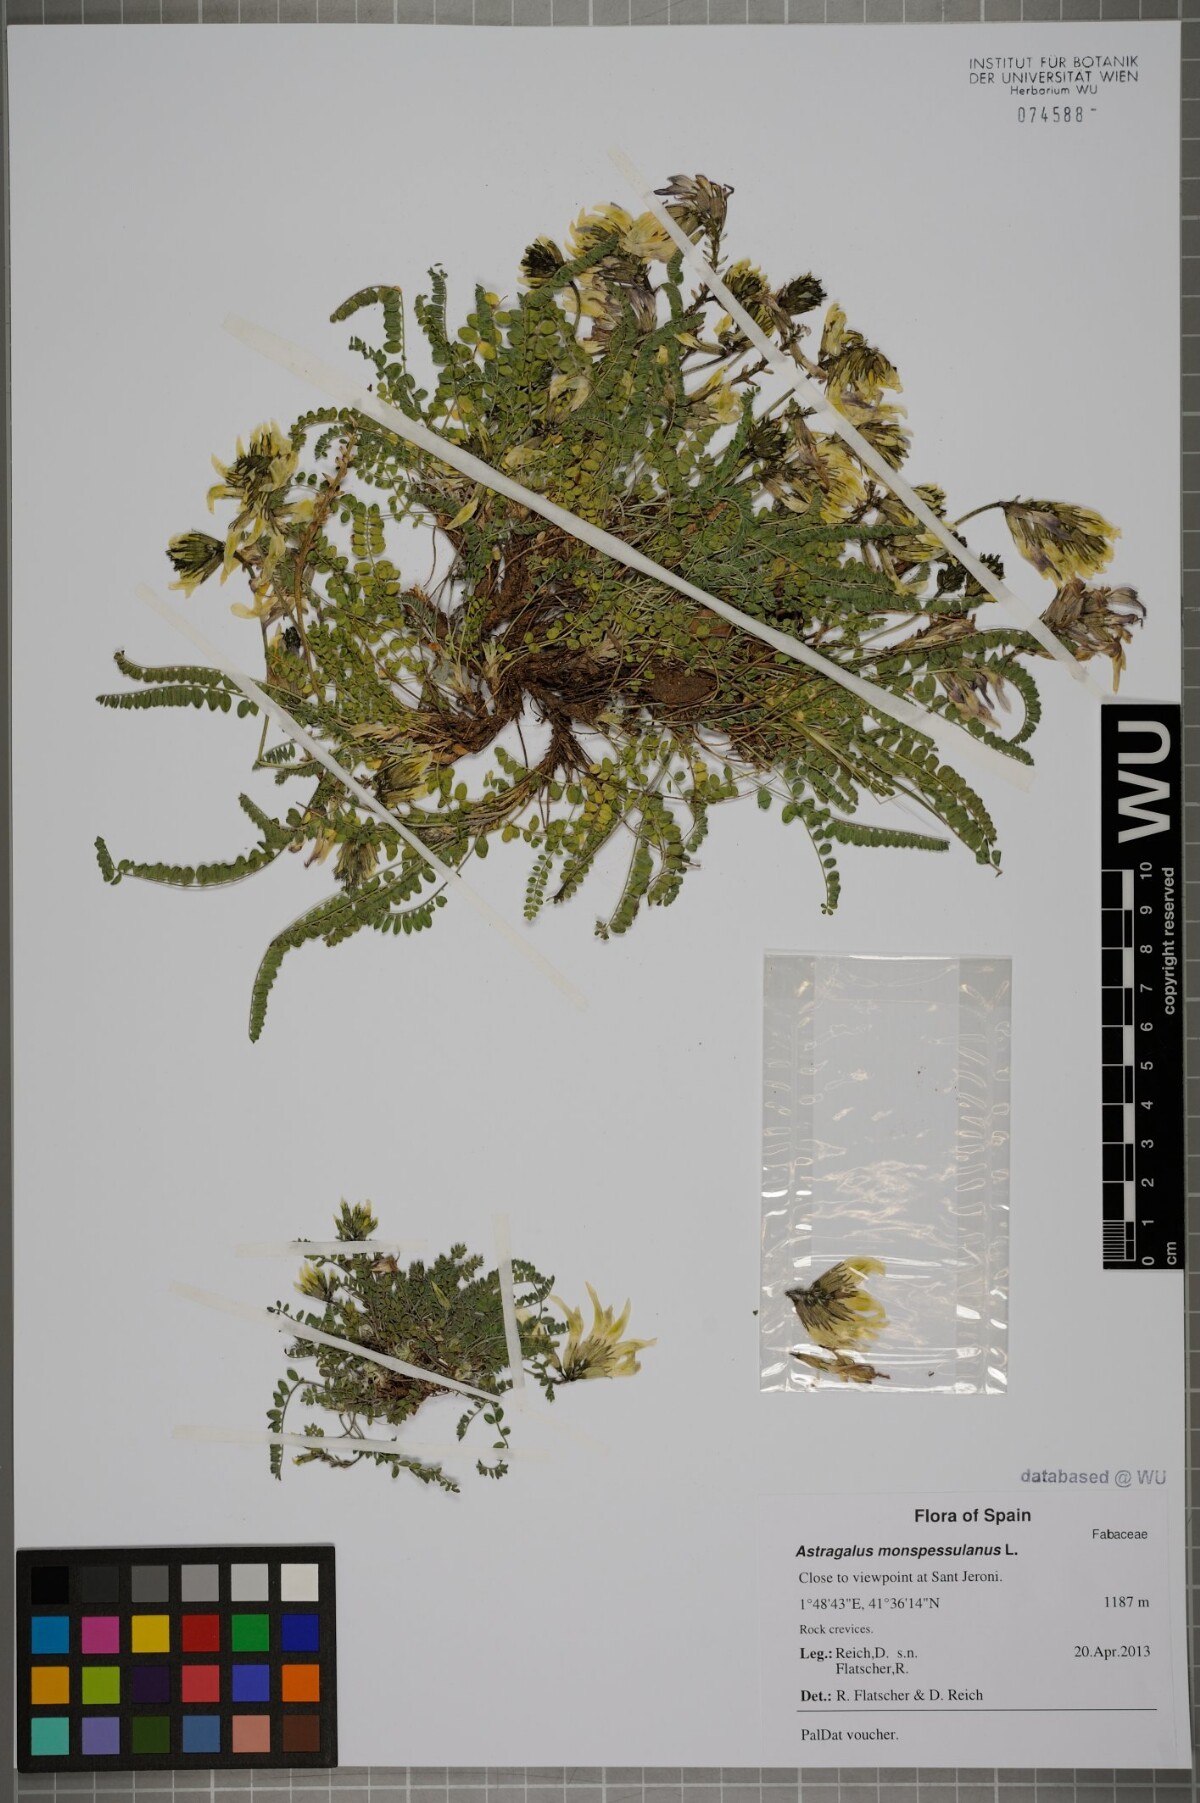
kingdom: Plantae
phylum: Tracheophyta
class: Magnoliopsida
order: Fabales
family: Fabaceae
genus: Astragalus
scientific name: Astragalus monspessulanus
